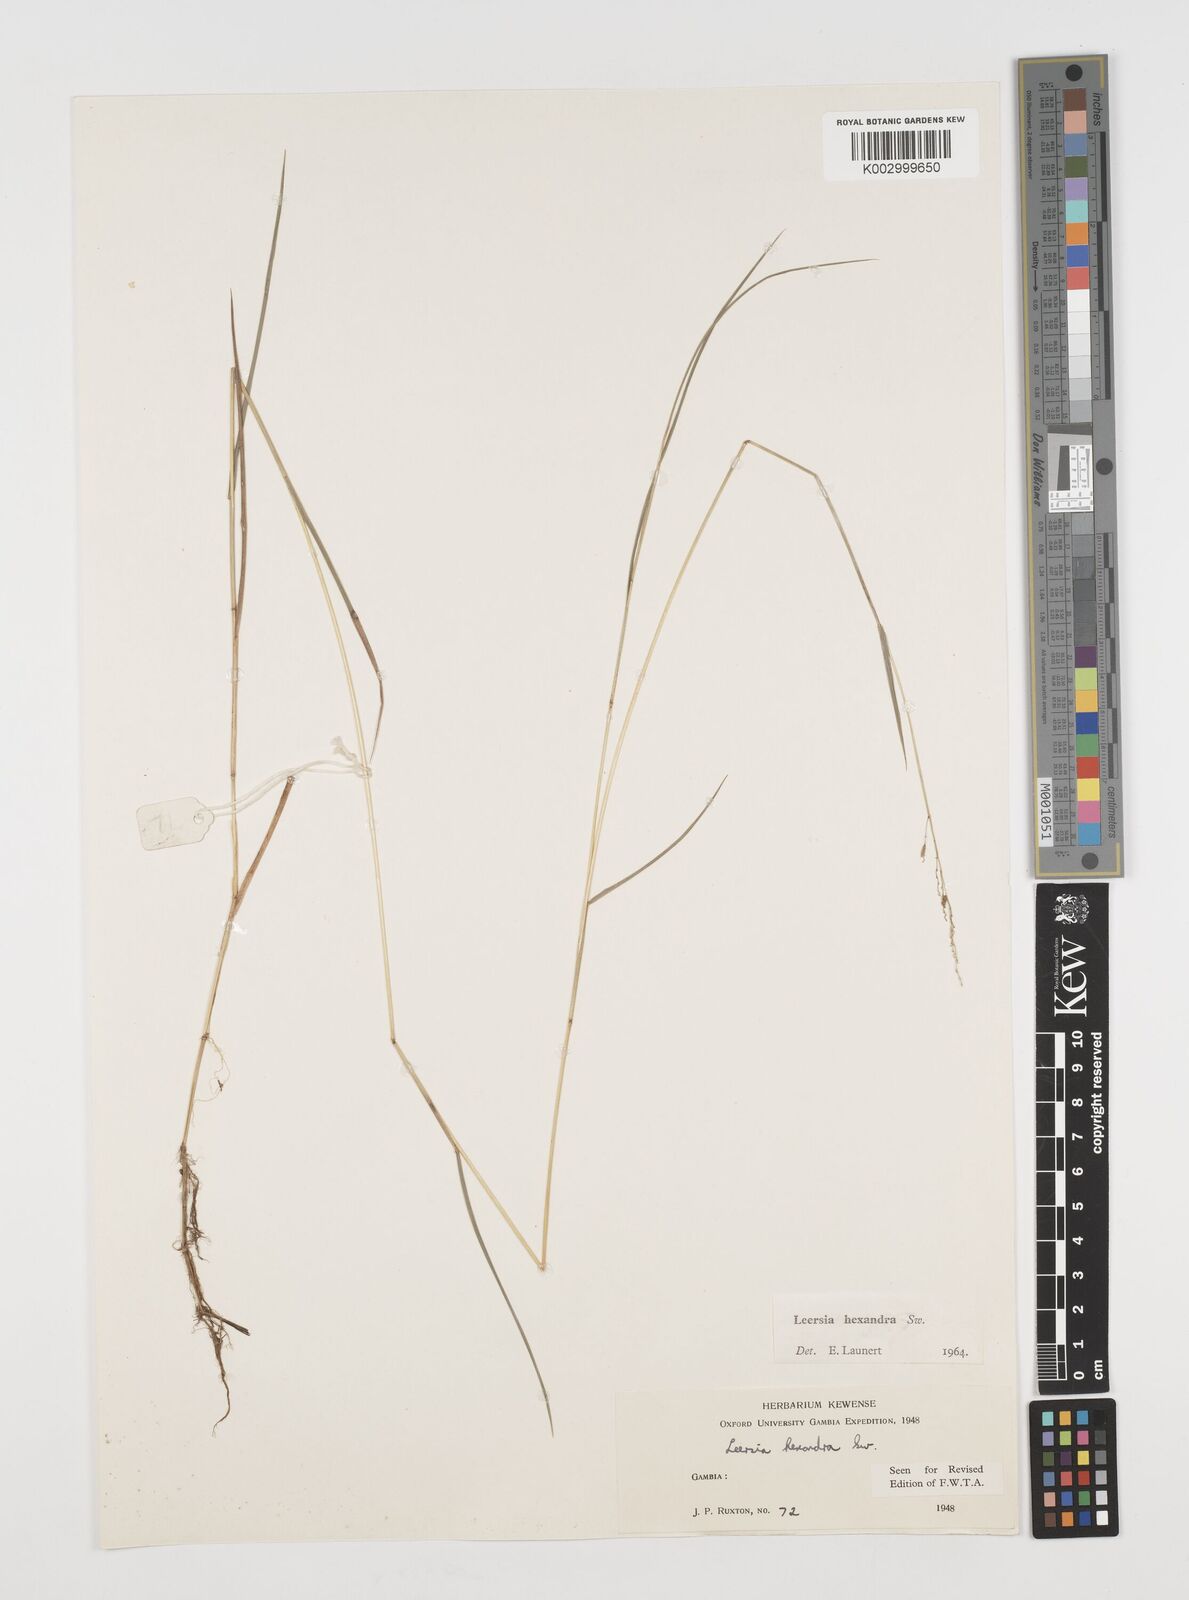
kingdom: Plantae
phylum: Tracheophyta
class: Liliopsida
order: Poales
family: Poaceae
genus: Leersia
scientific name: Leersia hexandra
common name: Southern cut grass
